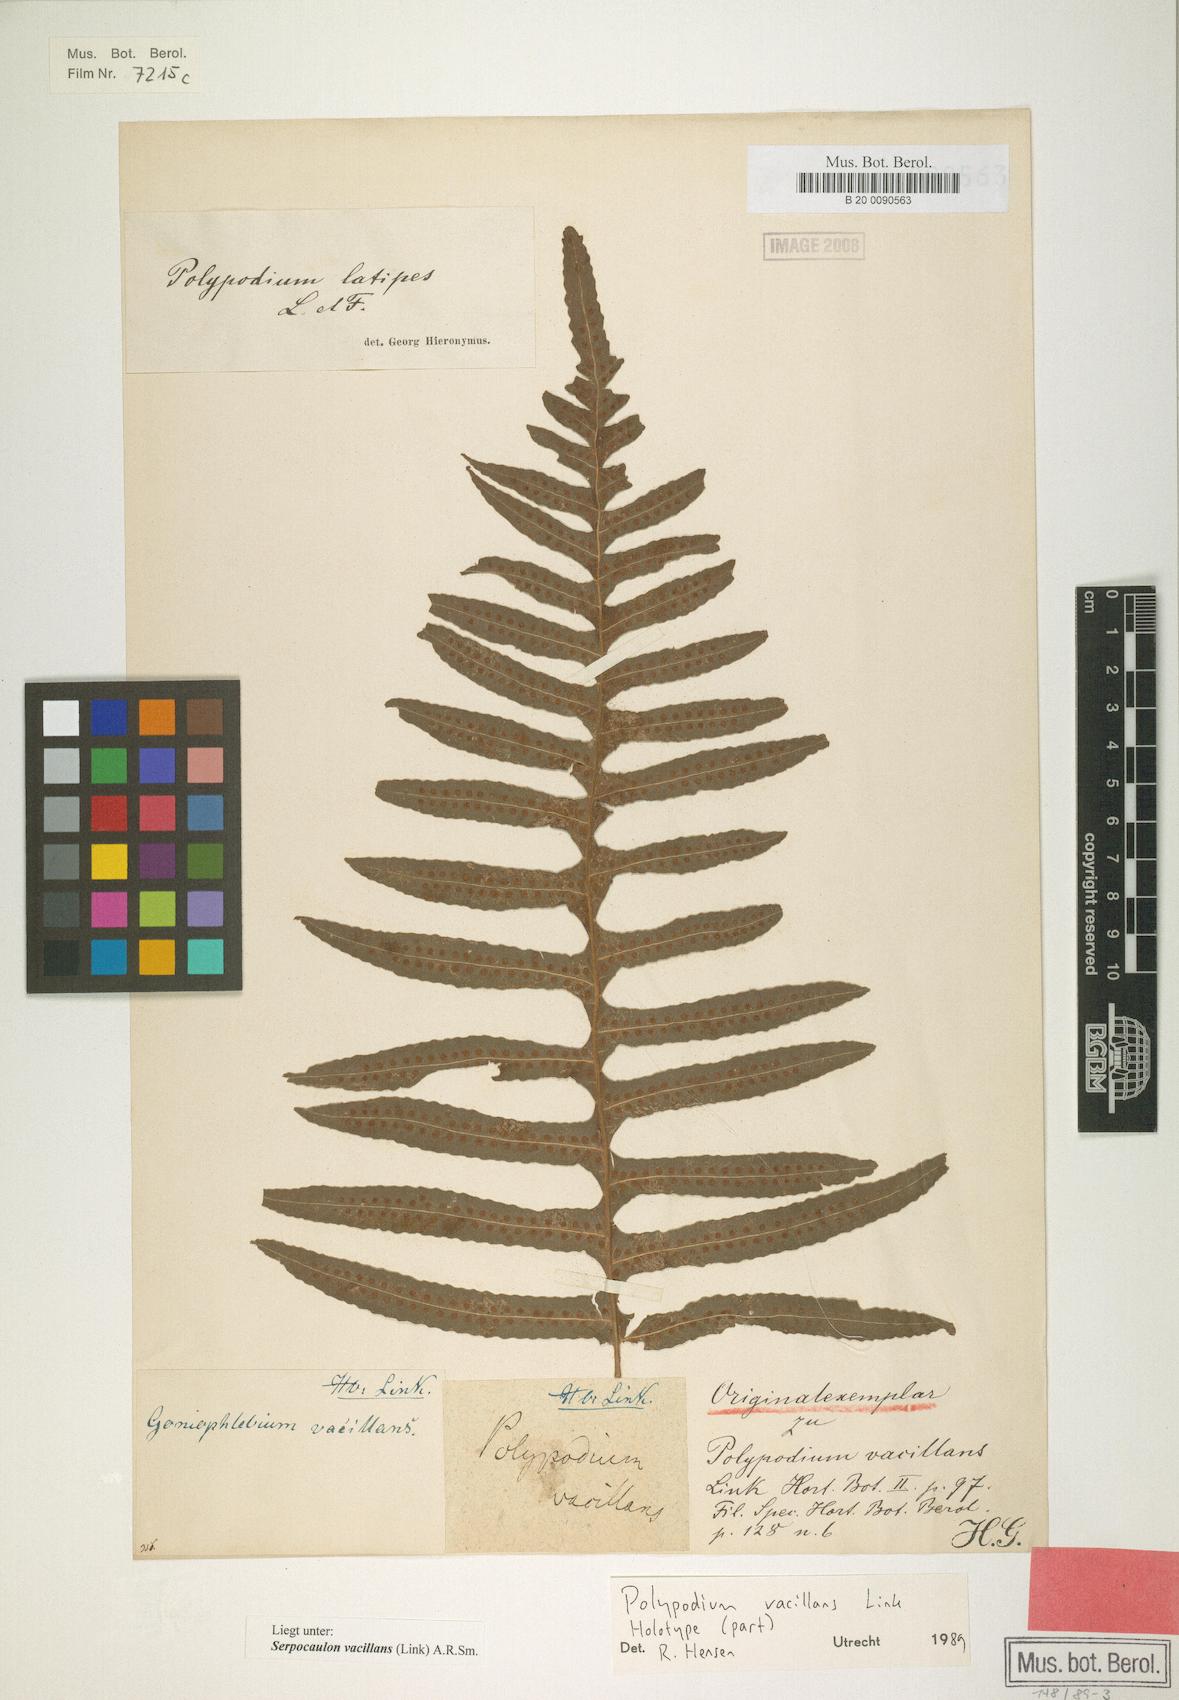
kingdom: Plantae
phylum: Tracheophyta
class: Polypodiopsida
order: Polypodiales
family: Polypodiaceae
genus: Serpocaulon
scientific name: Serpocaulon vacillans
